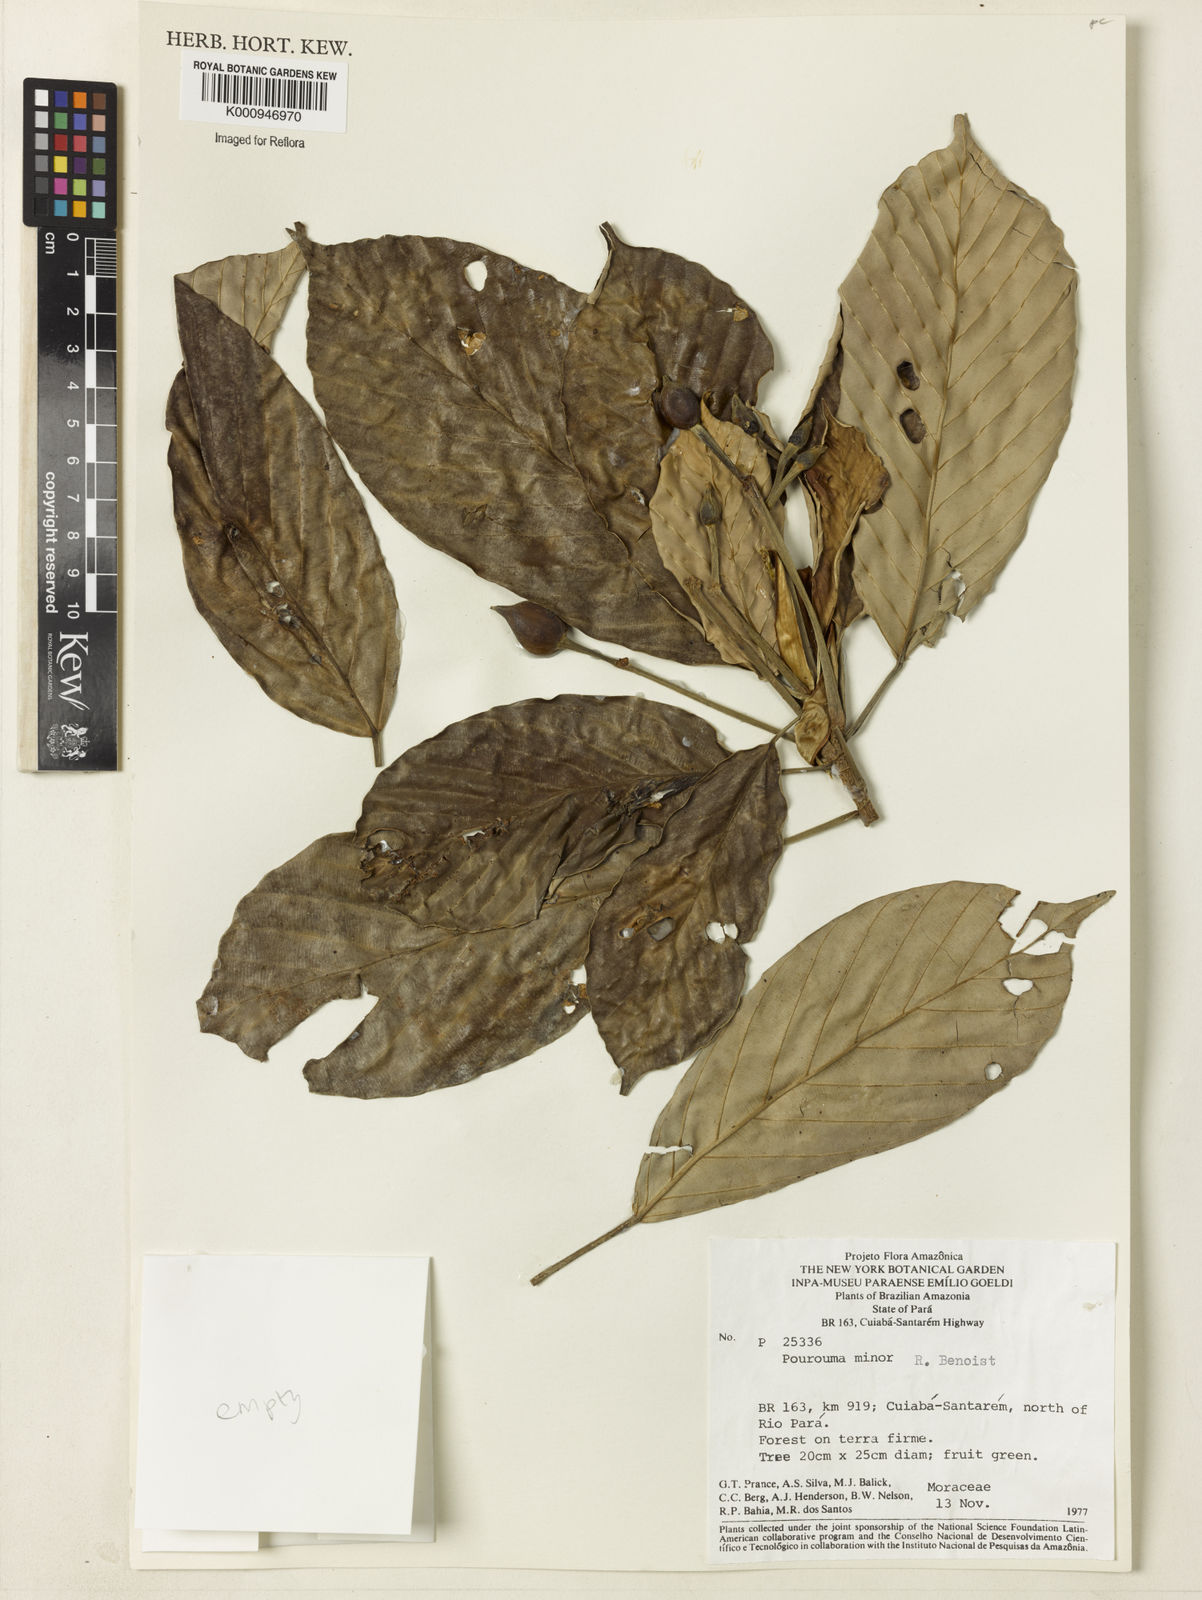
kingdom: Plantae
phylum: Tracheophyta
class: Magnoliopsida
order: Rosales
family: Urticaceae
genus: Pourouma
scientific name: Pourouma minor
